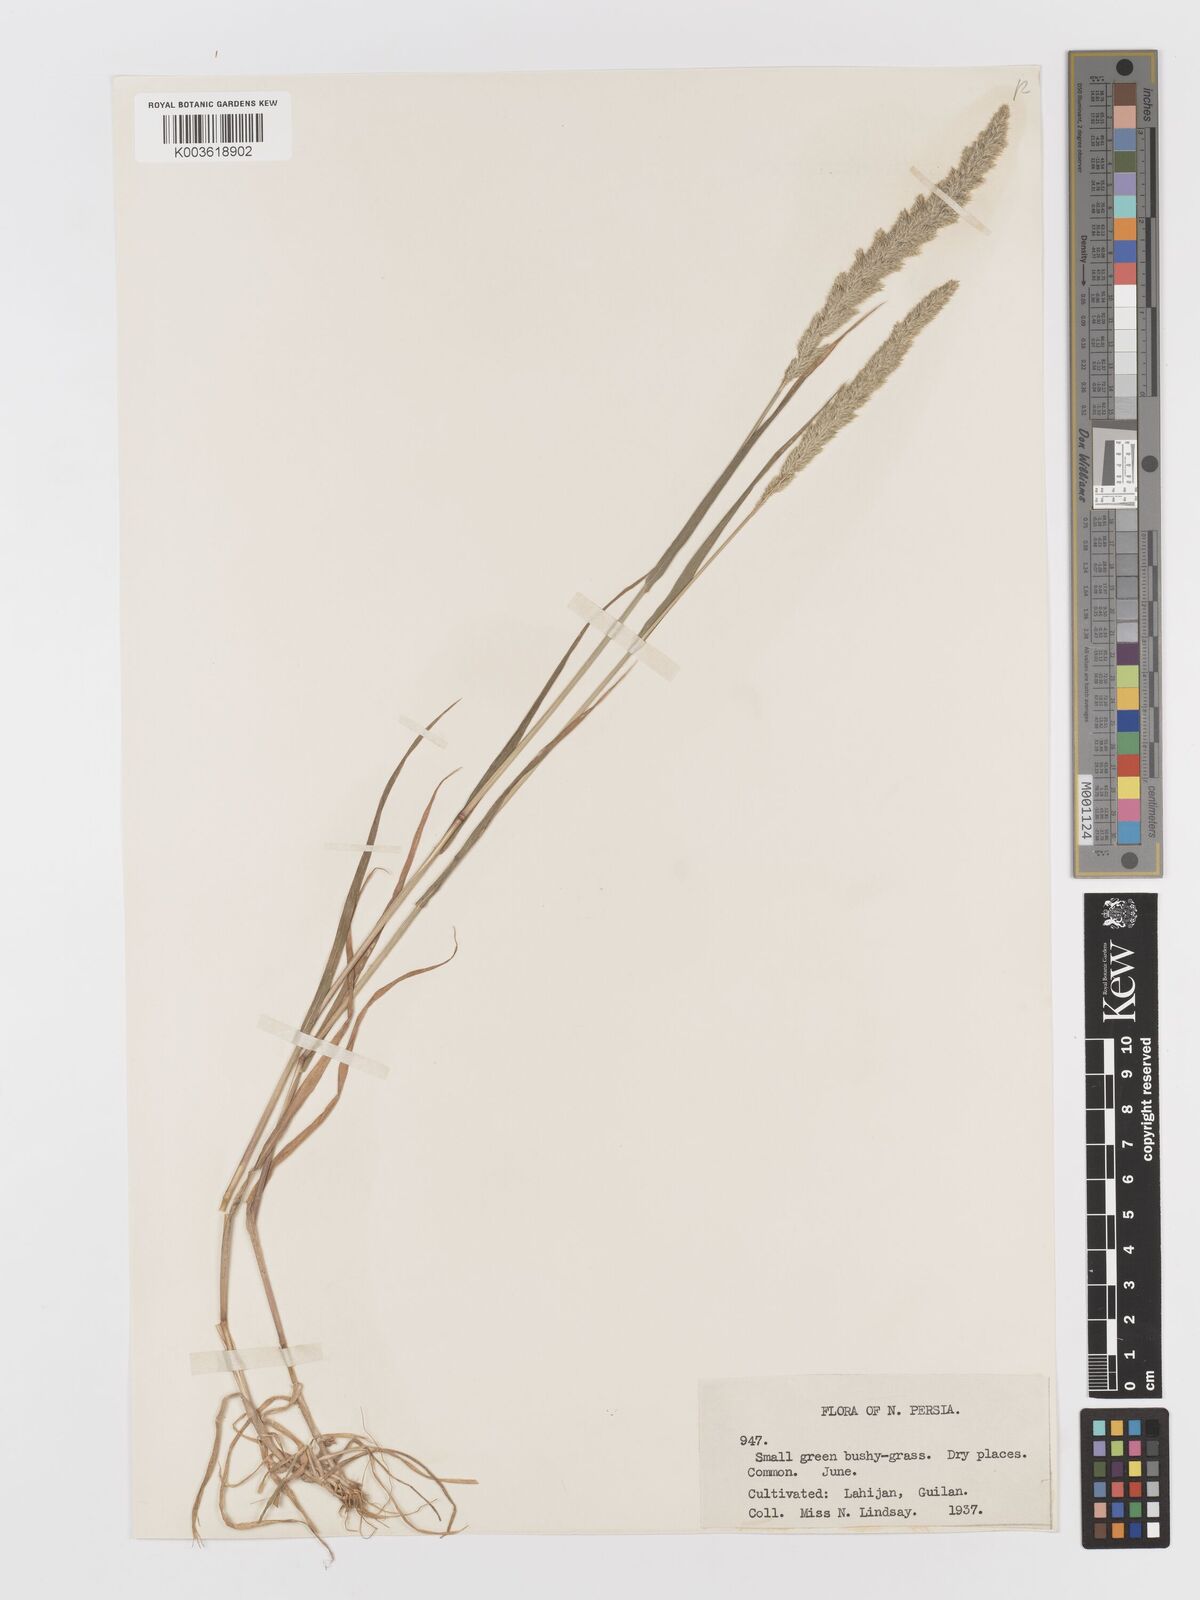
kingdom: Plantae
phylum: Tracheophyta
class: Liliopsida
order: Poales
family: Poaceae
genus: Rostraria
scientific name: Rostraria cristata
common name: Mediterranean hair-grass
